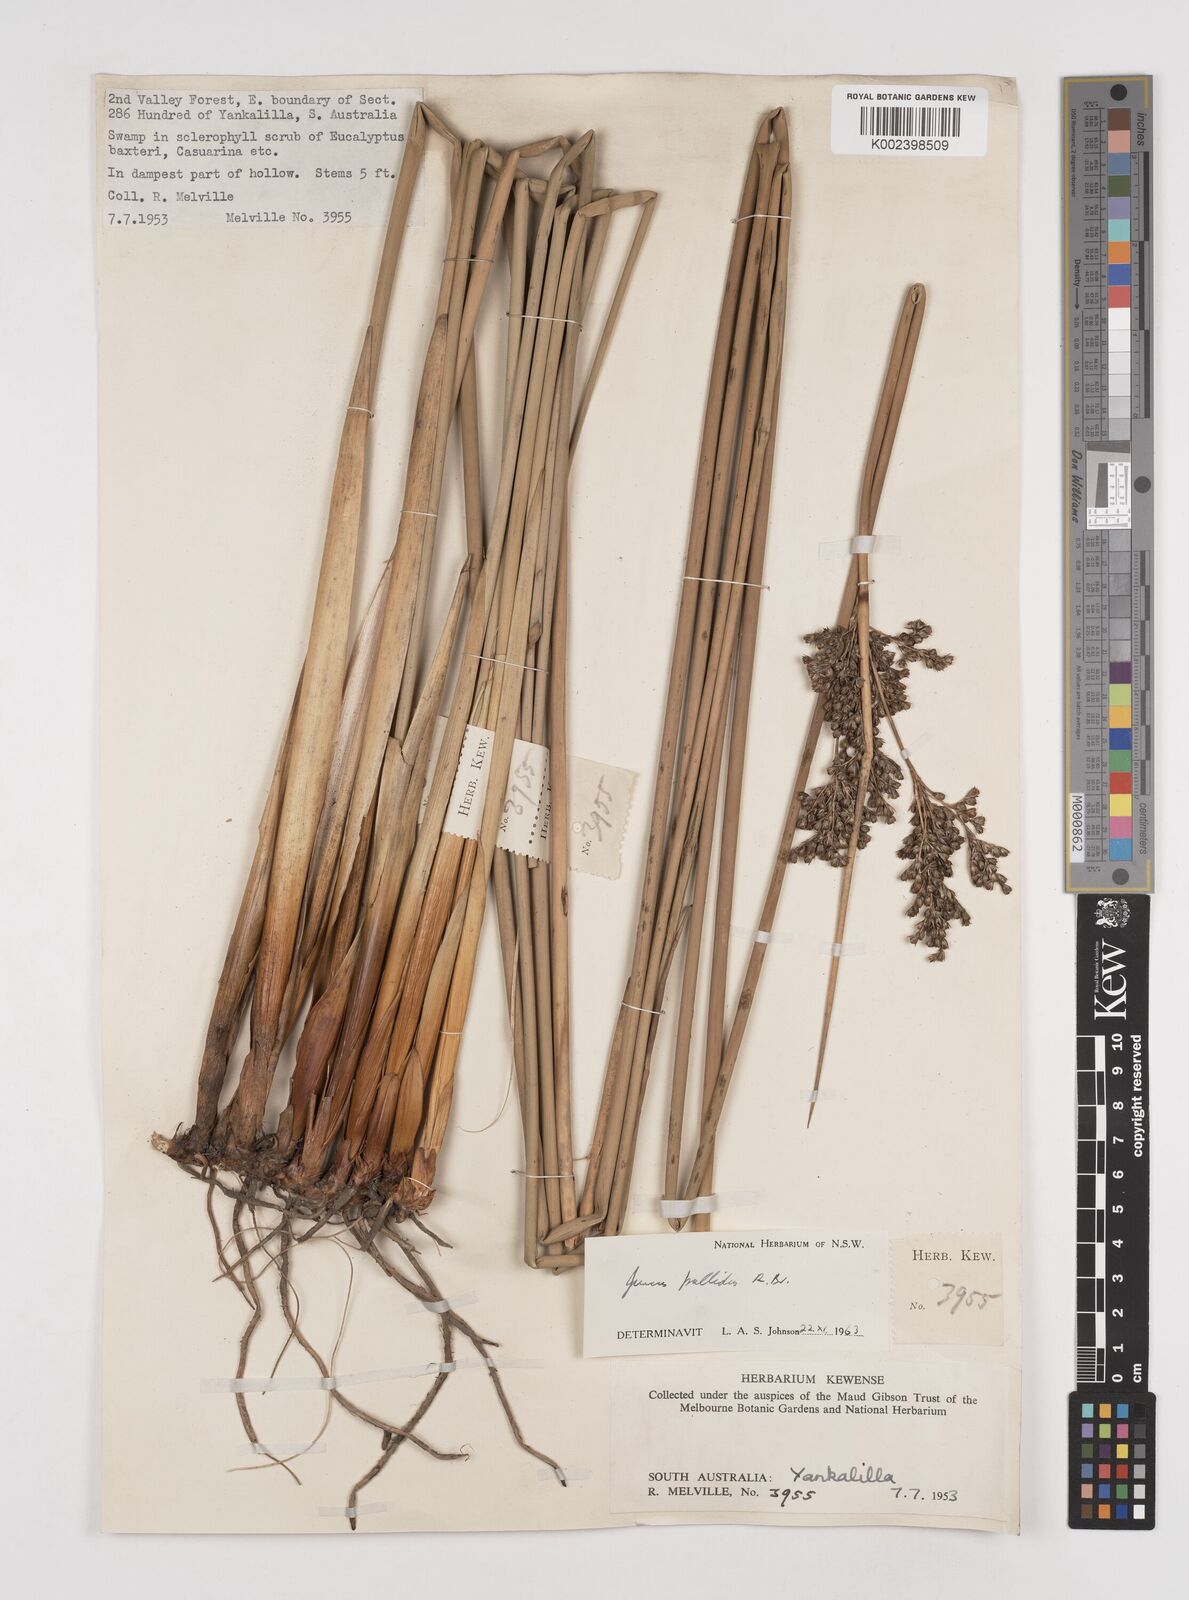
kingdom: Plantae
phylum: Tracheophyta
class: Liliopsida
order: Poales
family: Juncaceae
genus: Juncus
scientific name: Juncus pallidus
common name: Great soft-rush
